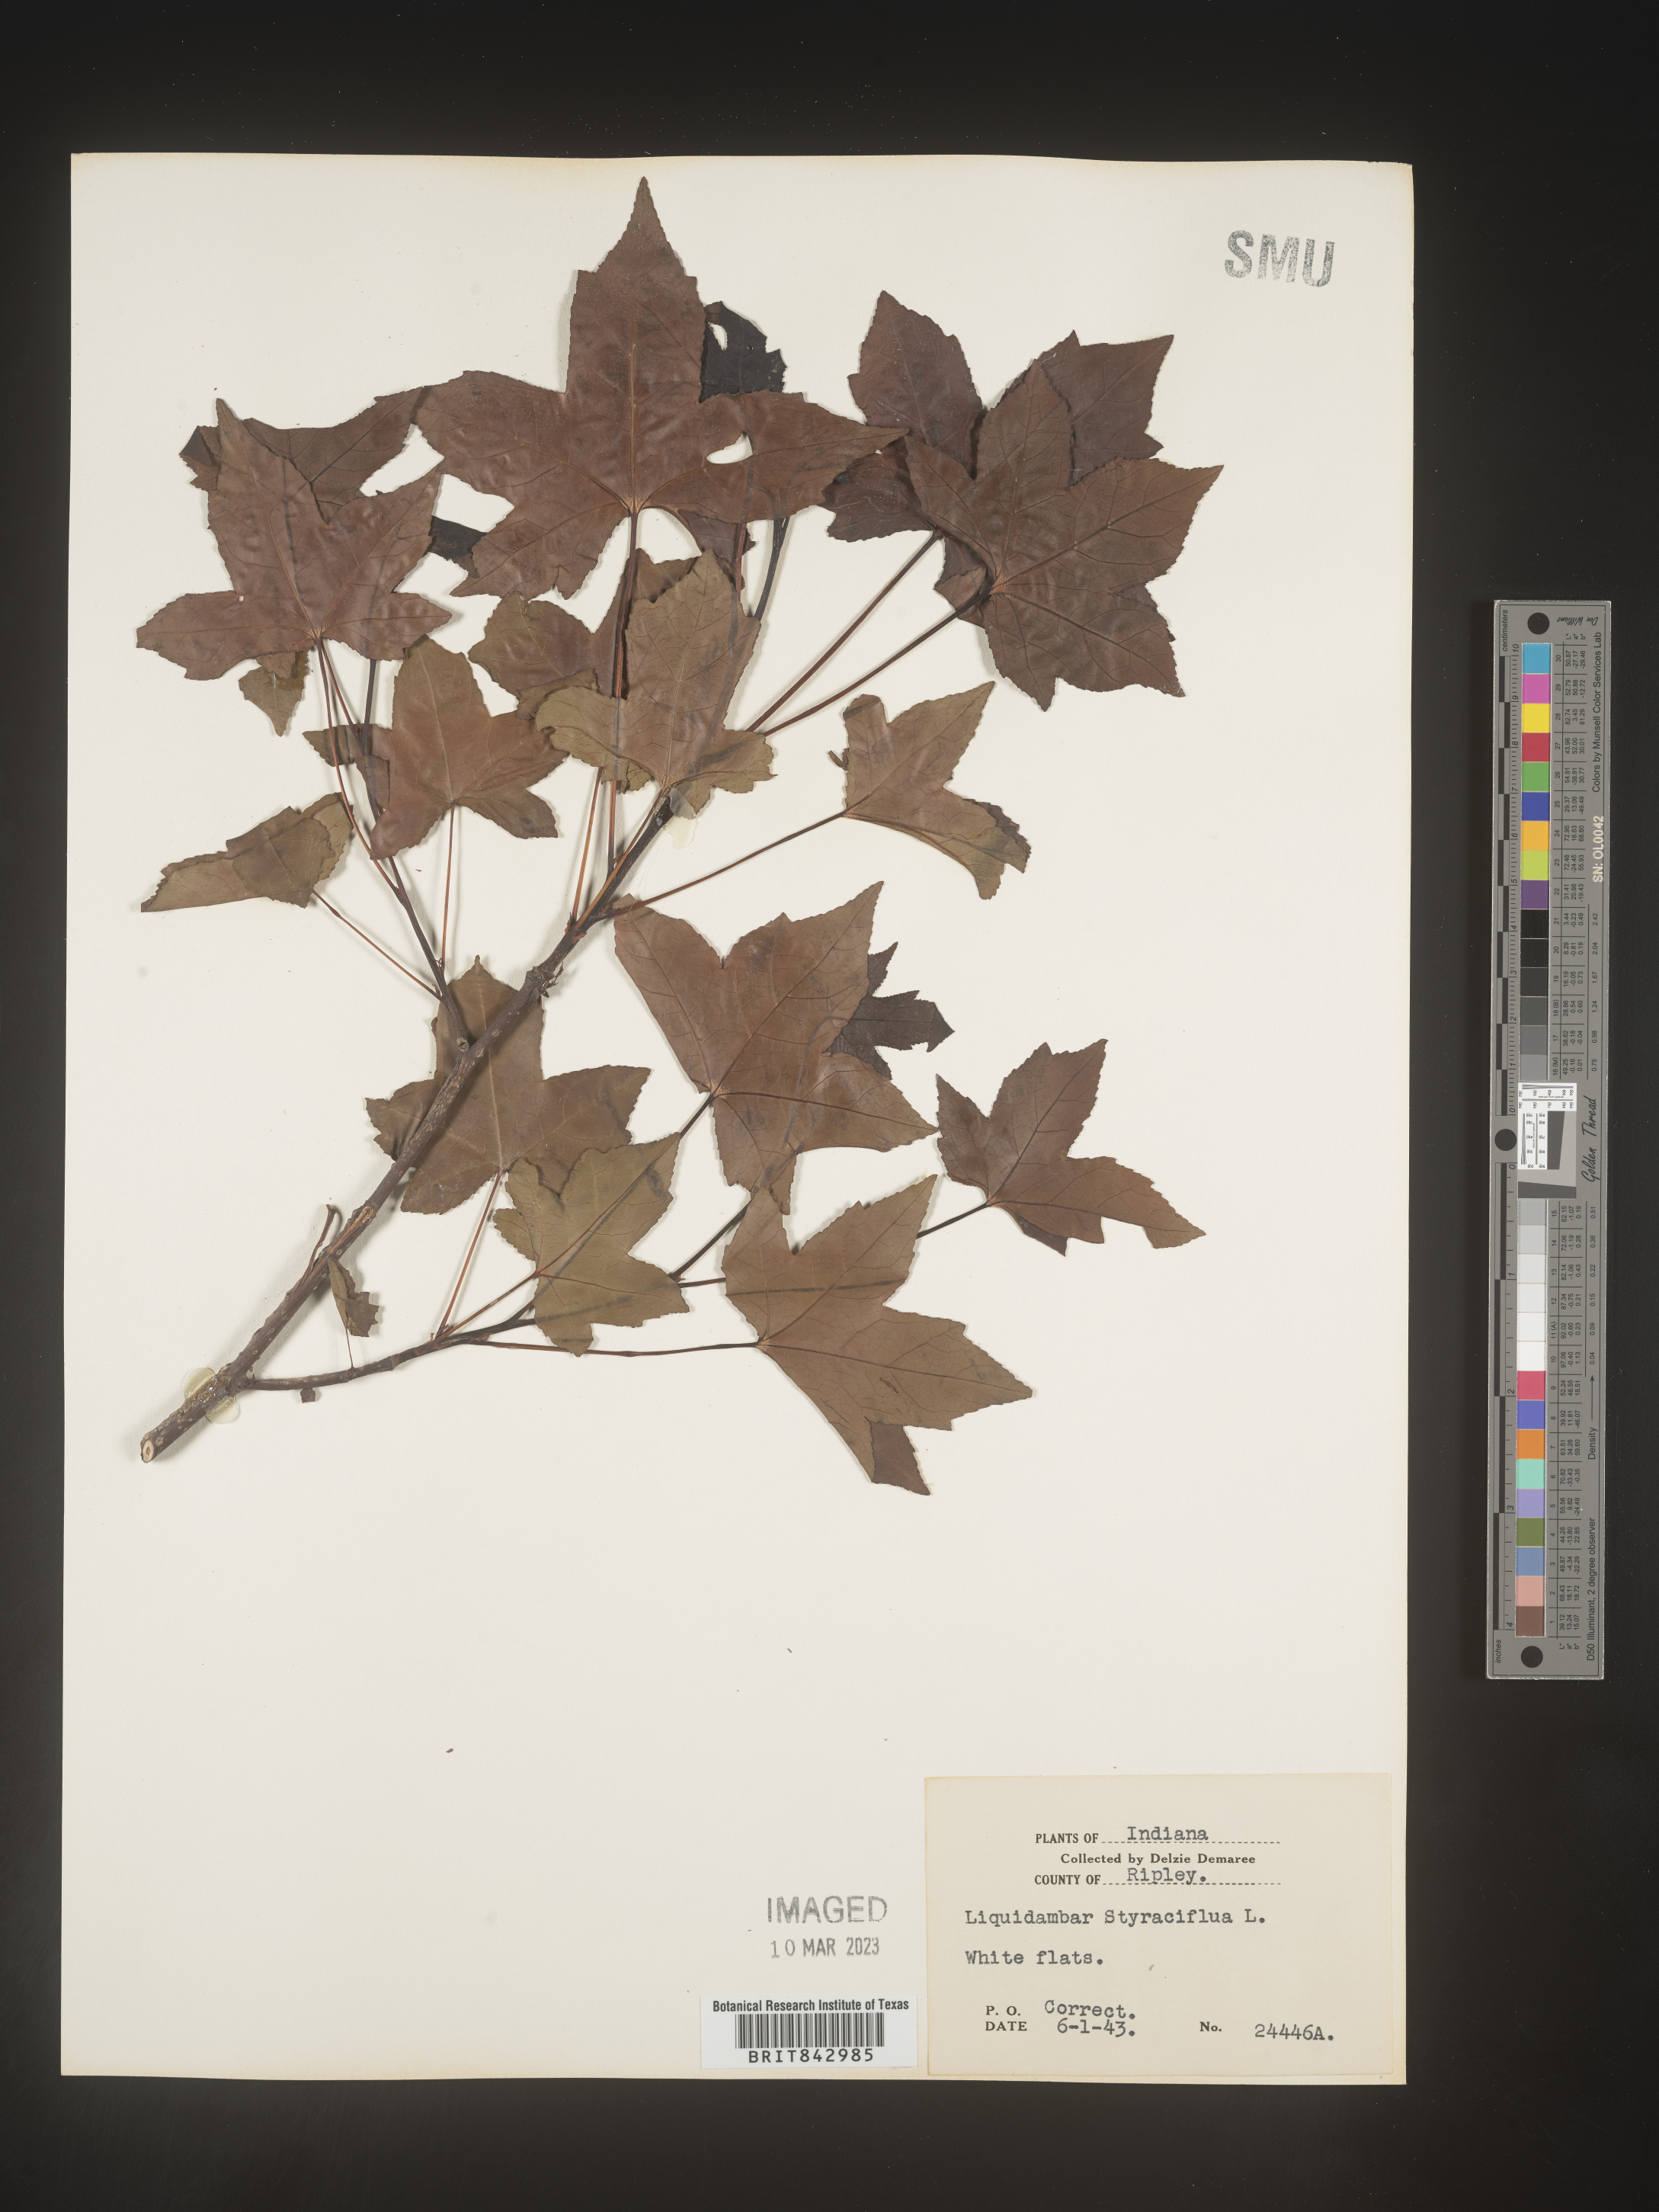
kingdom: Plantae
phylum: Tracheophyta
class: Magnoliopsida
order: Saxifragales
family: Altingiaceae
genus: Liquidambar
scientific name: Liquidambar
